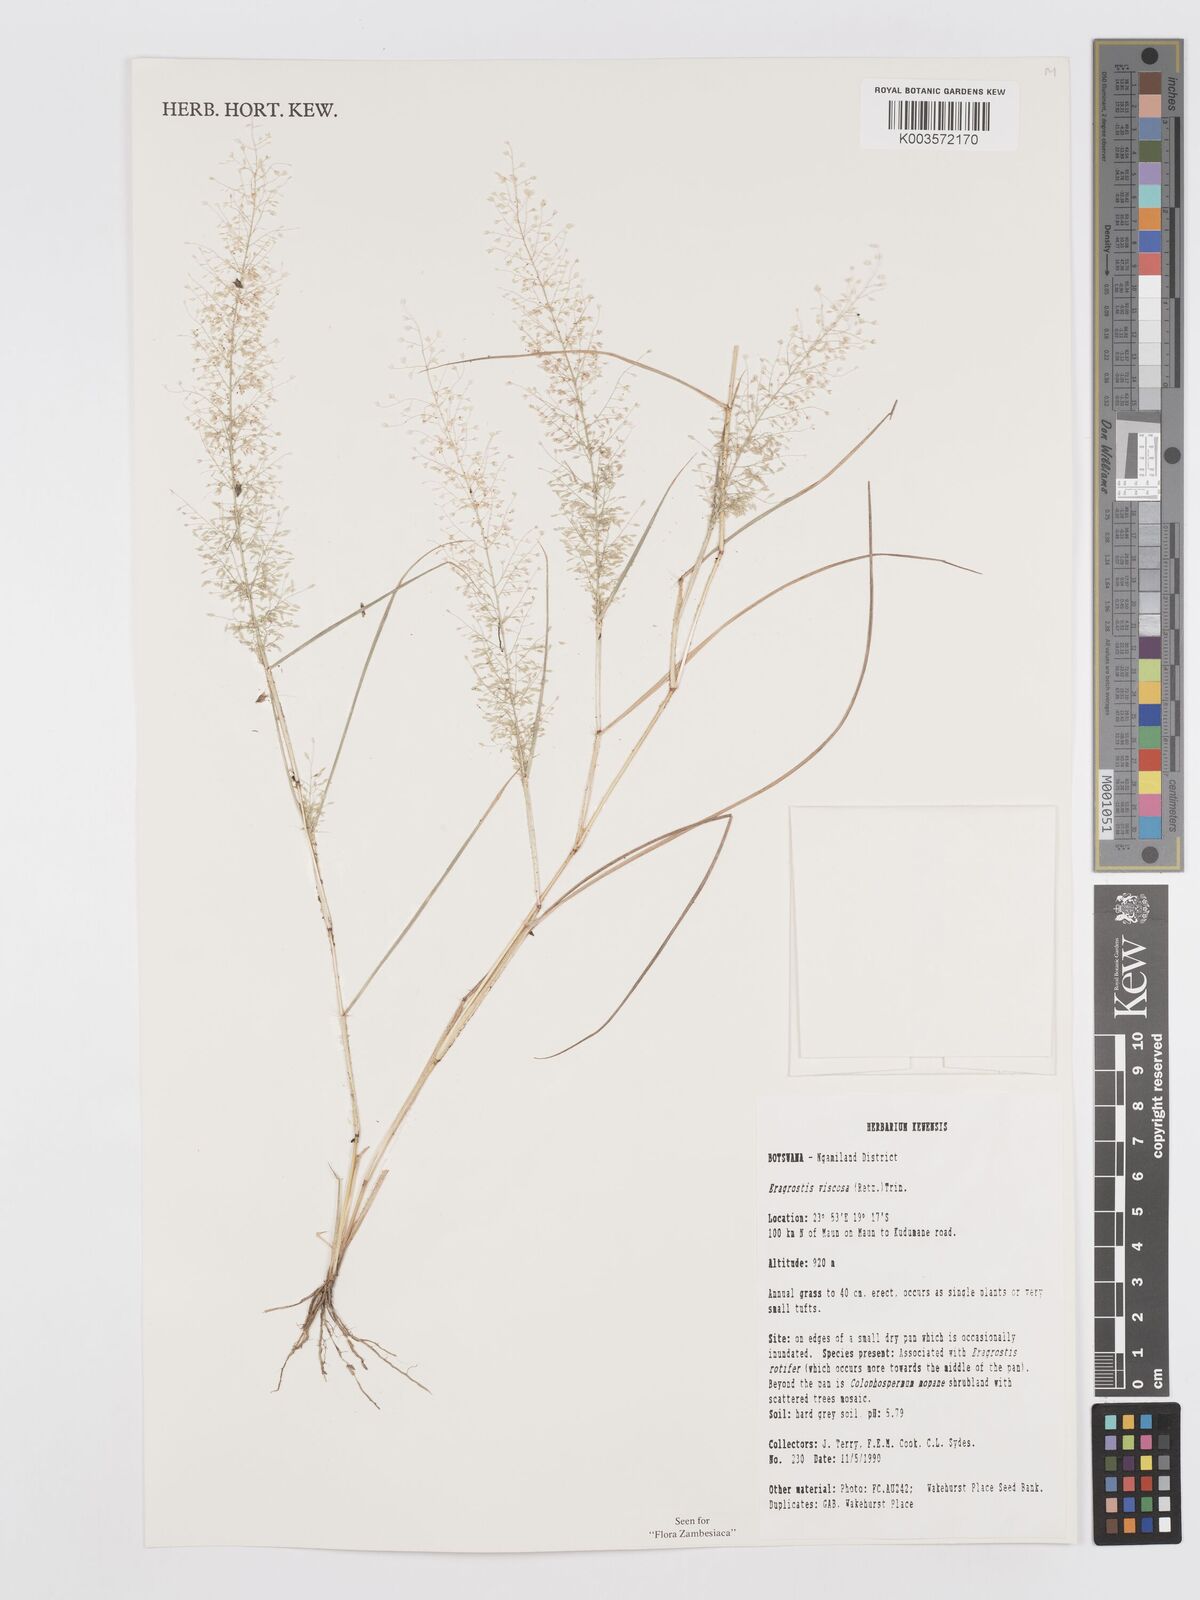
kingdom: Plantae
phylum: Tracheophyta
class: Liliopsida
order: Poales
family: Poaceae
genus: Eragrostis
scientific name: Eragrostis
